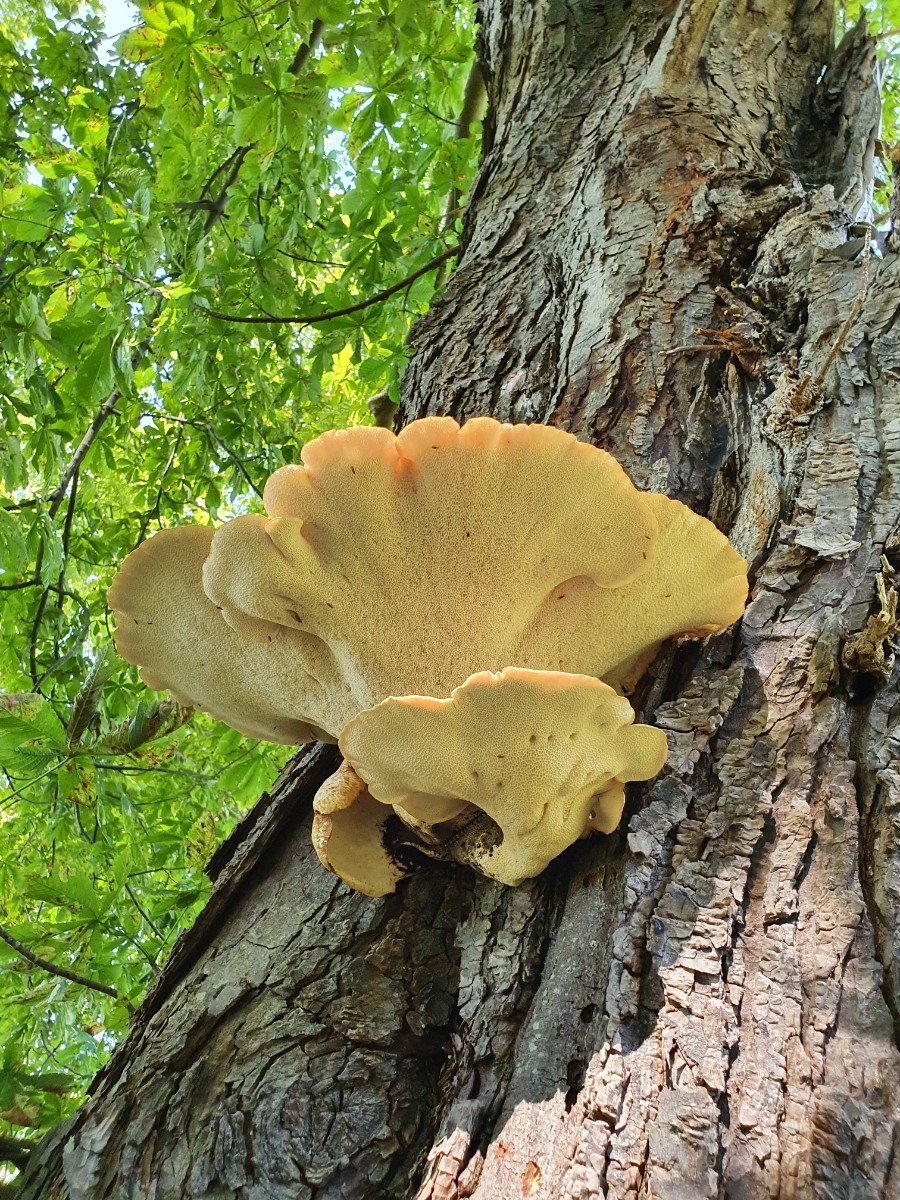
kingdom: Fungi
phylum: Basidiomycota
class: Agaricomycetes
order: Polyporales
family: Polyporaceae
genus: Polyporus
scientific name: Polyporus tuberaster
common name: knoldet stilkporesvamp
